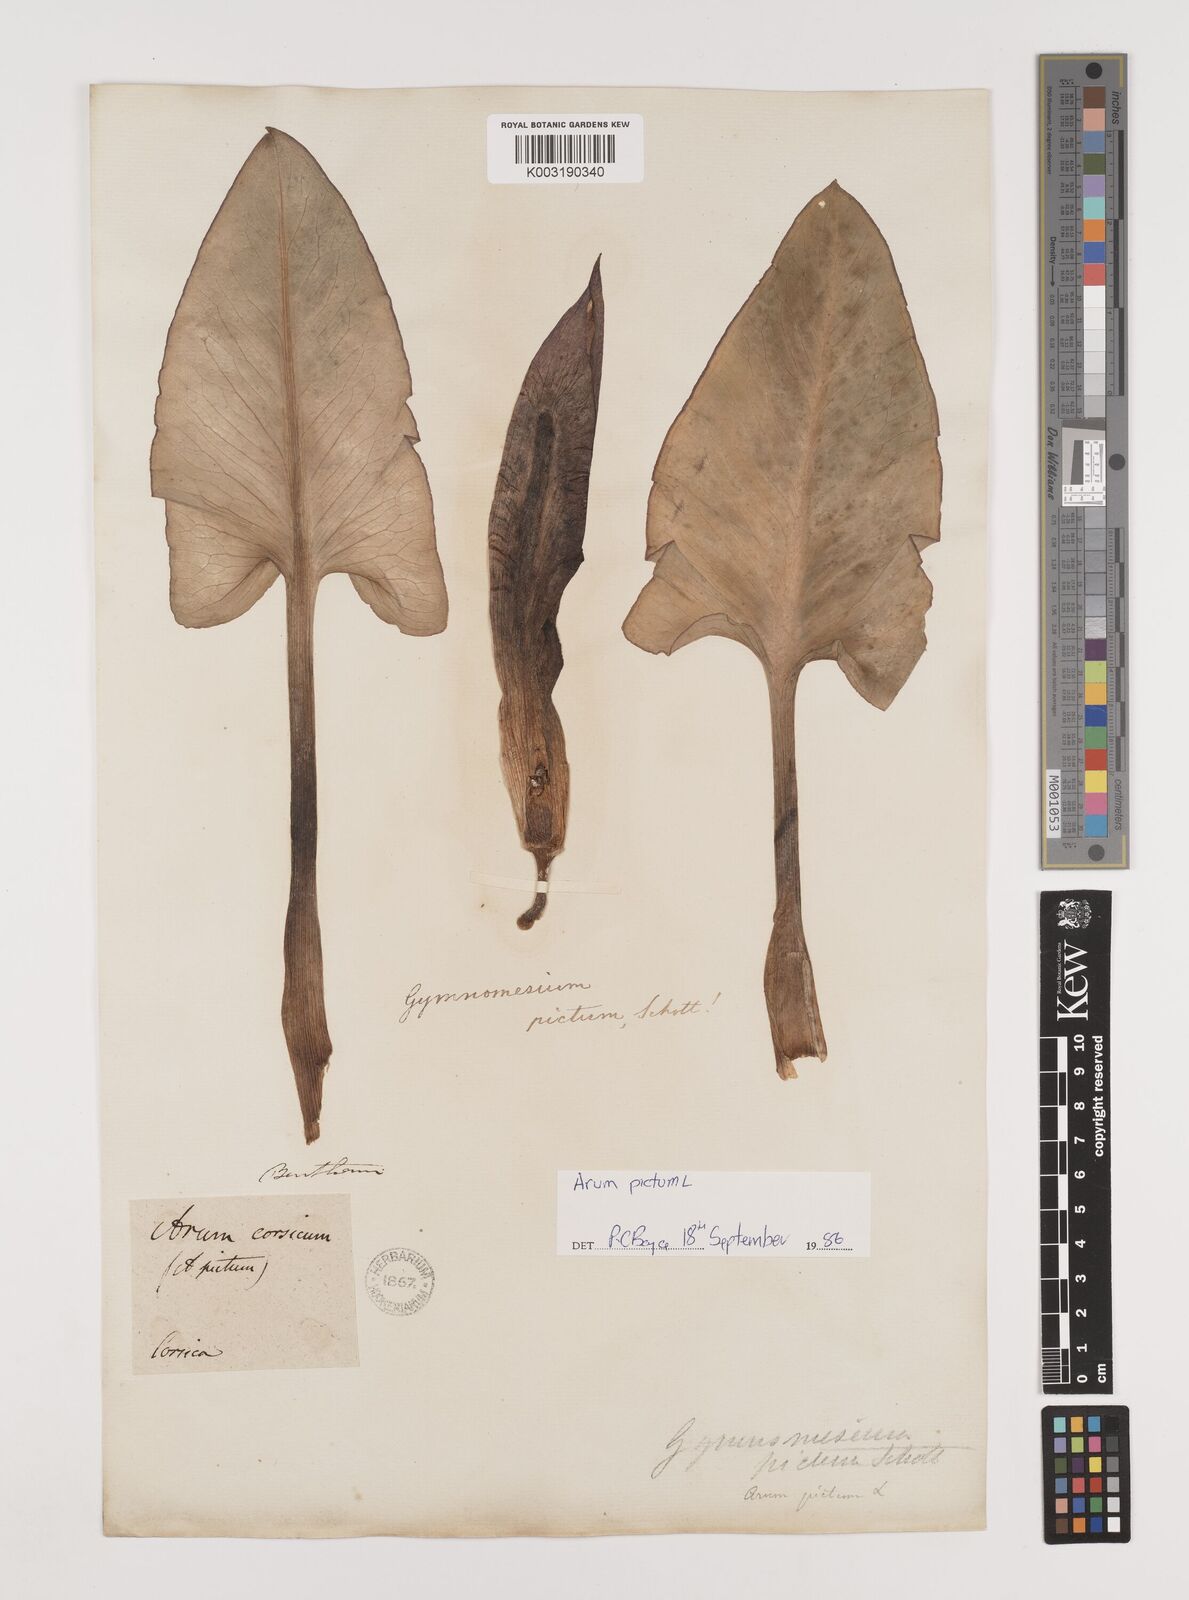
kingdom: Plantae
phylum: Tracheophyta
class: Liliopsida
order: Alismatales
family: Araceae
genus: Arum
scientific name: Arum pictum
